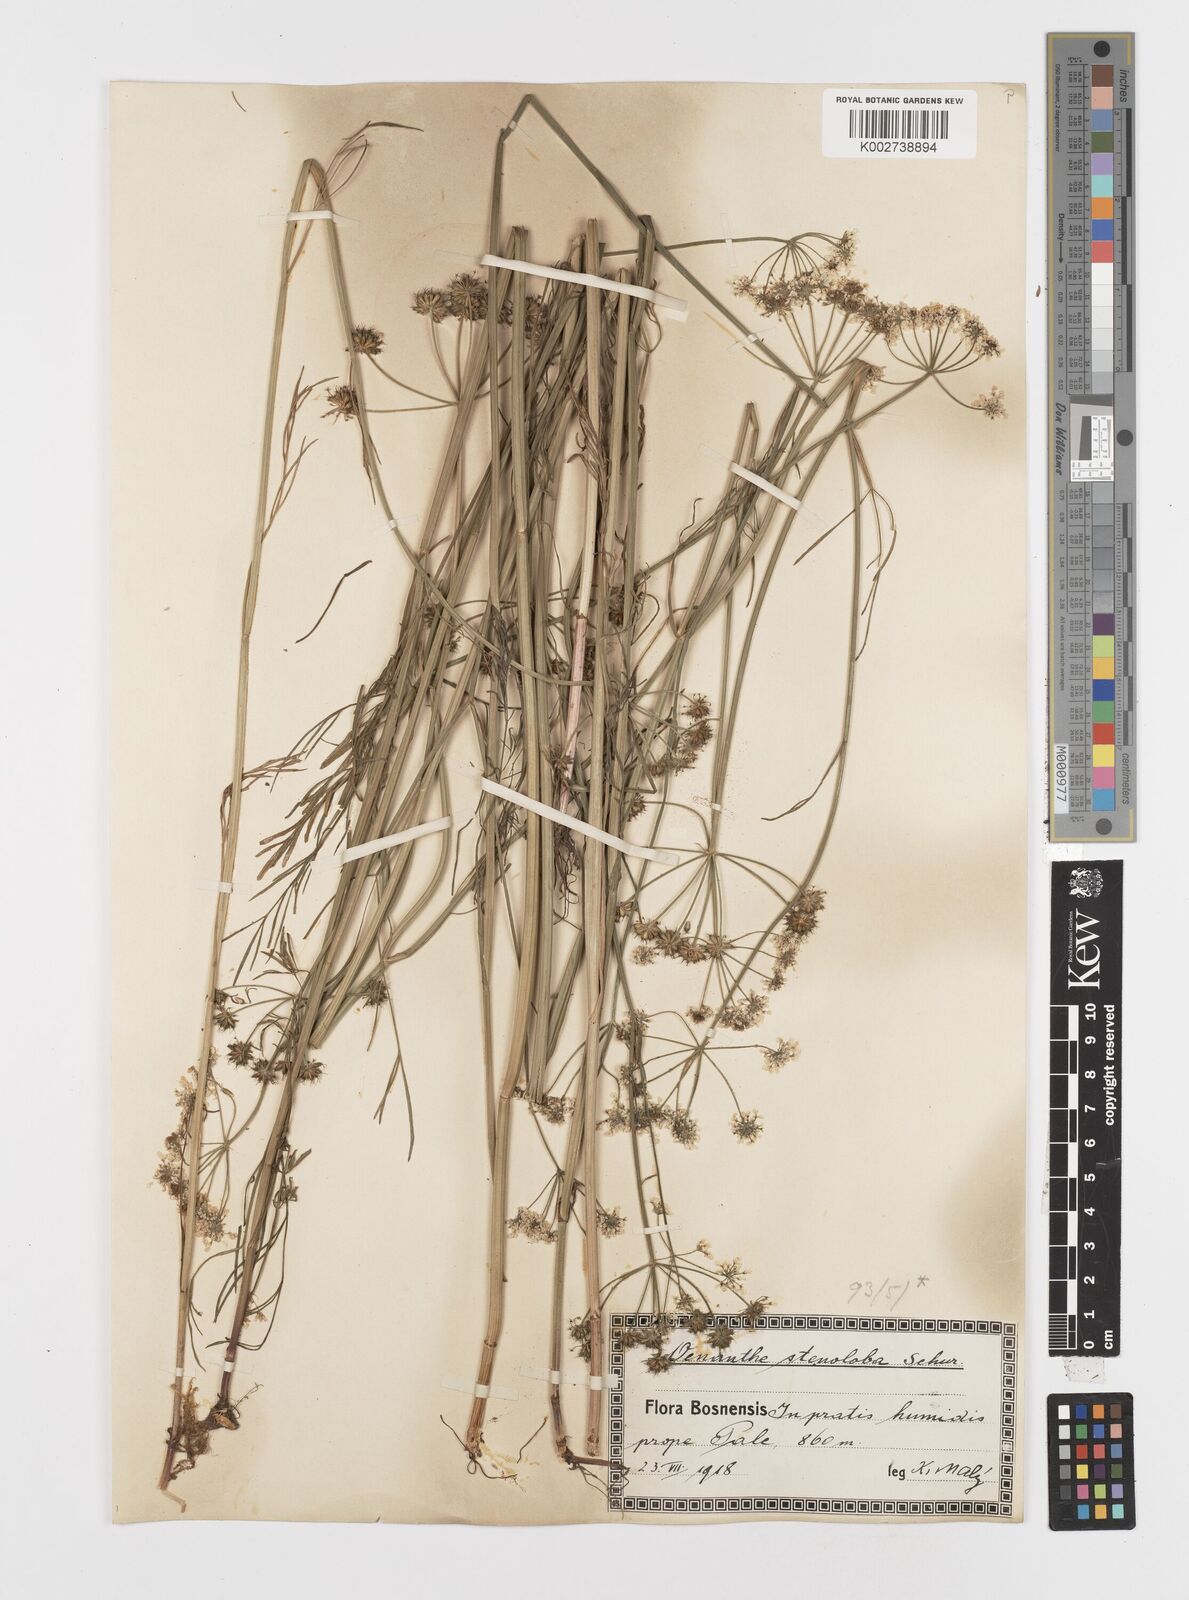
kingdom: Plantae
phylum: Tracheophyta
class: Magnoliopsida
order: Apiales
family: Apiaceae
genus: Oenanthe
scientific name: Oenanthe peucedanifolia
